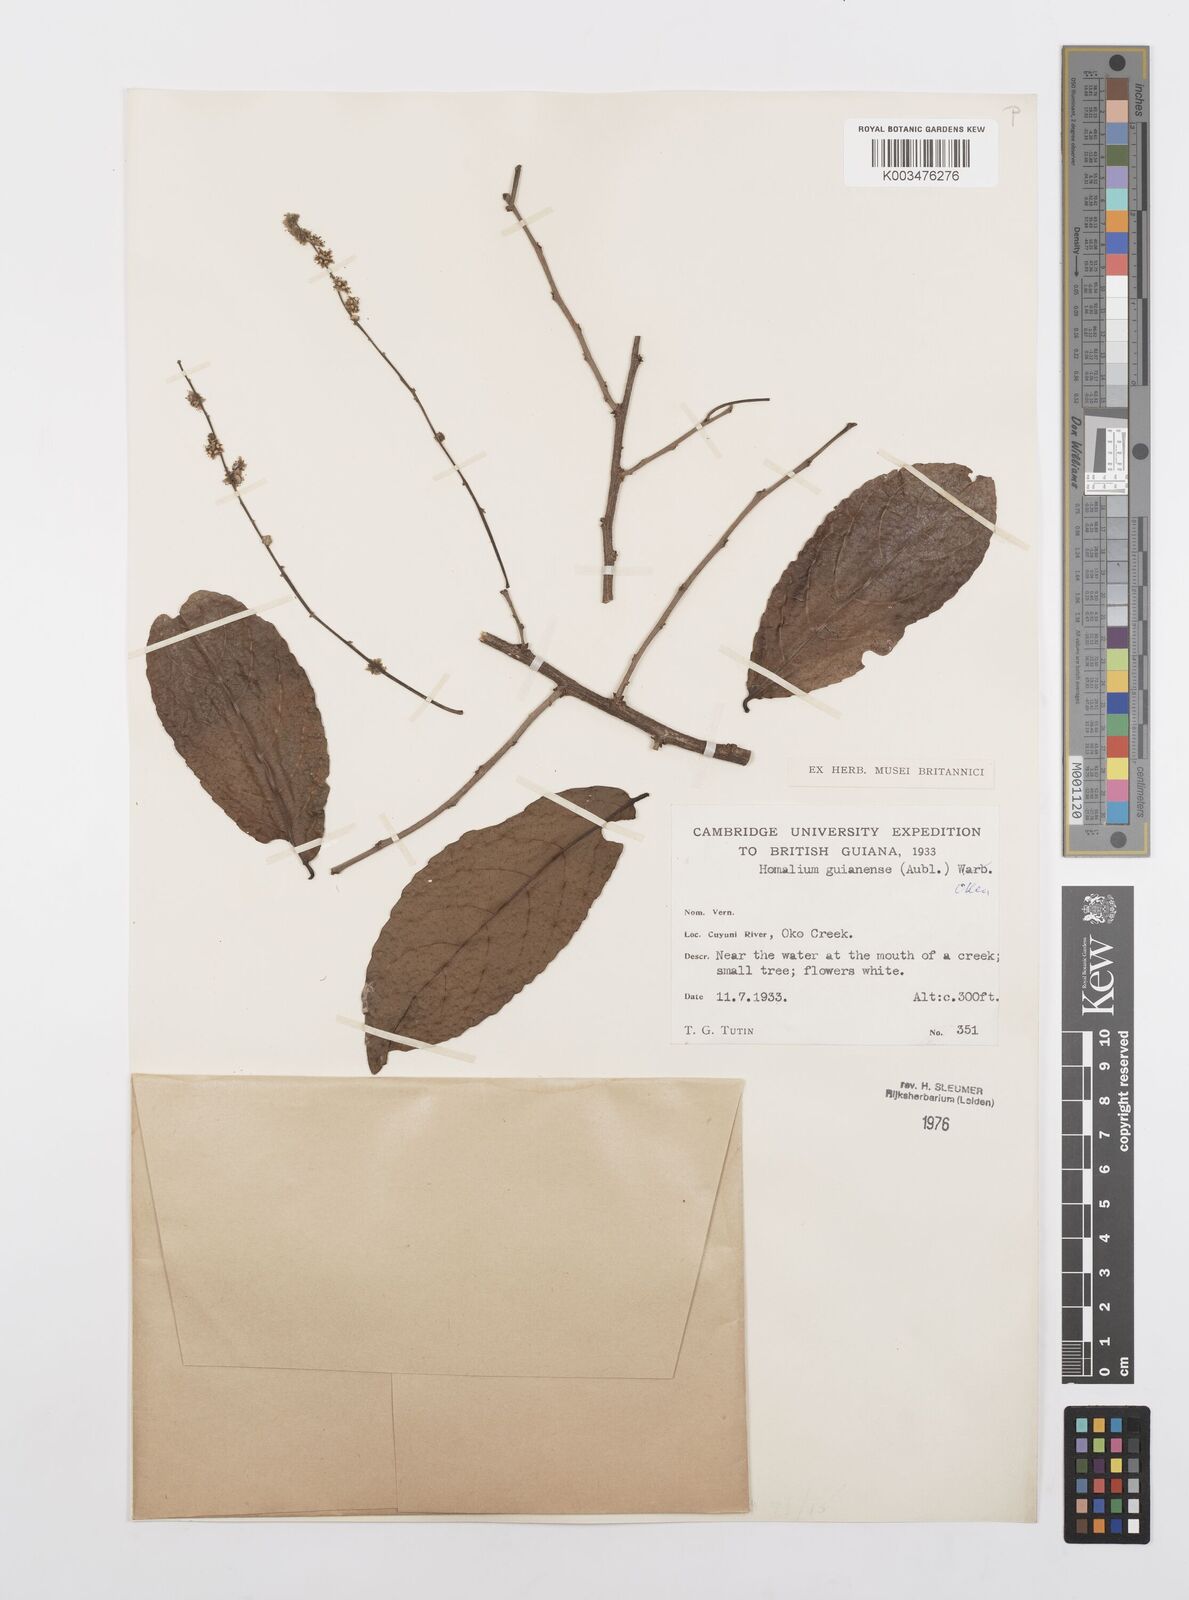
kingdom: Plantae
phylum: Tracheophyta
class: Magnoliopsida
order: Malpighiales
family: Salicaceae
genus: Homalium
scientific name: Homalium guianense
